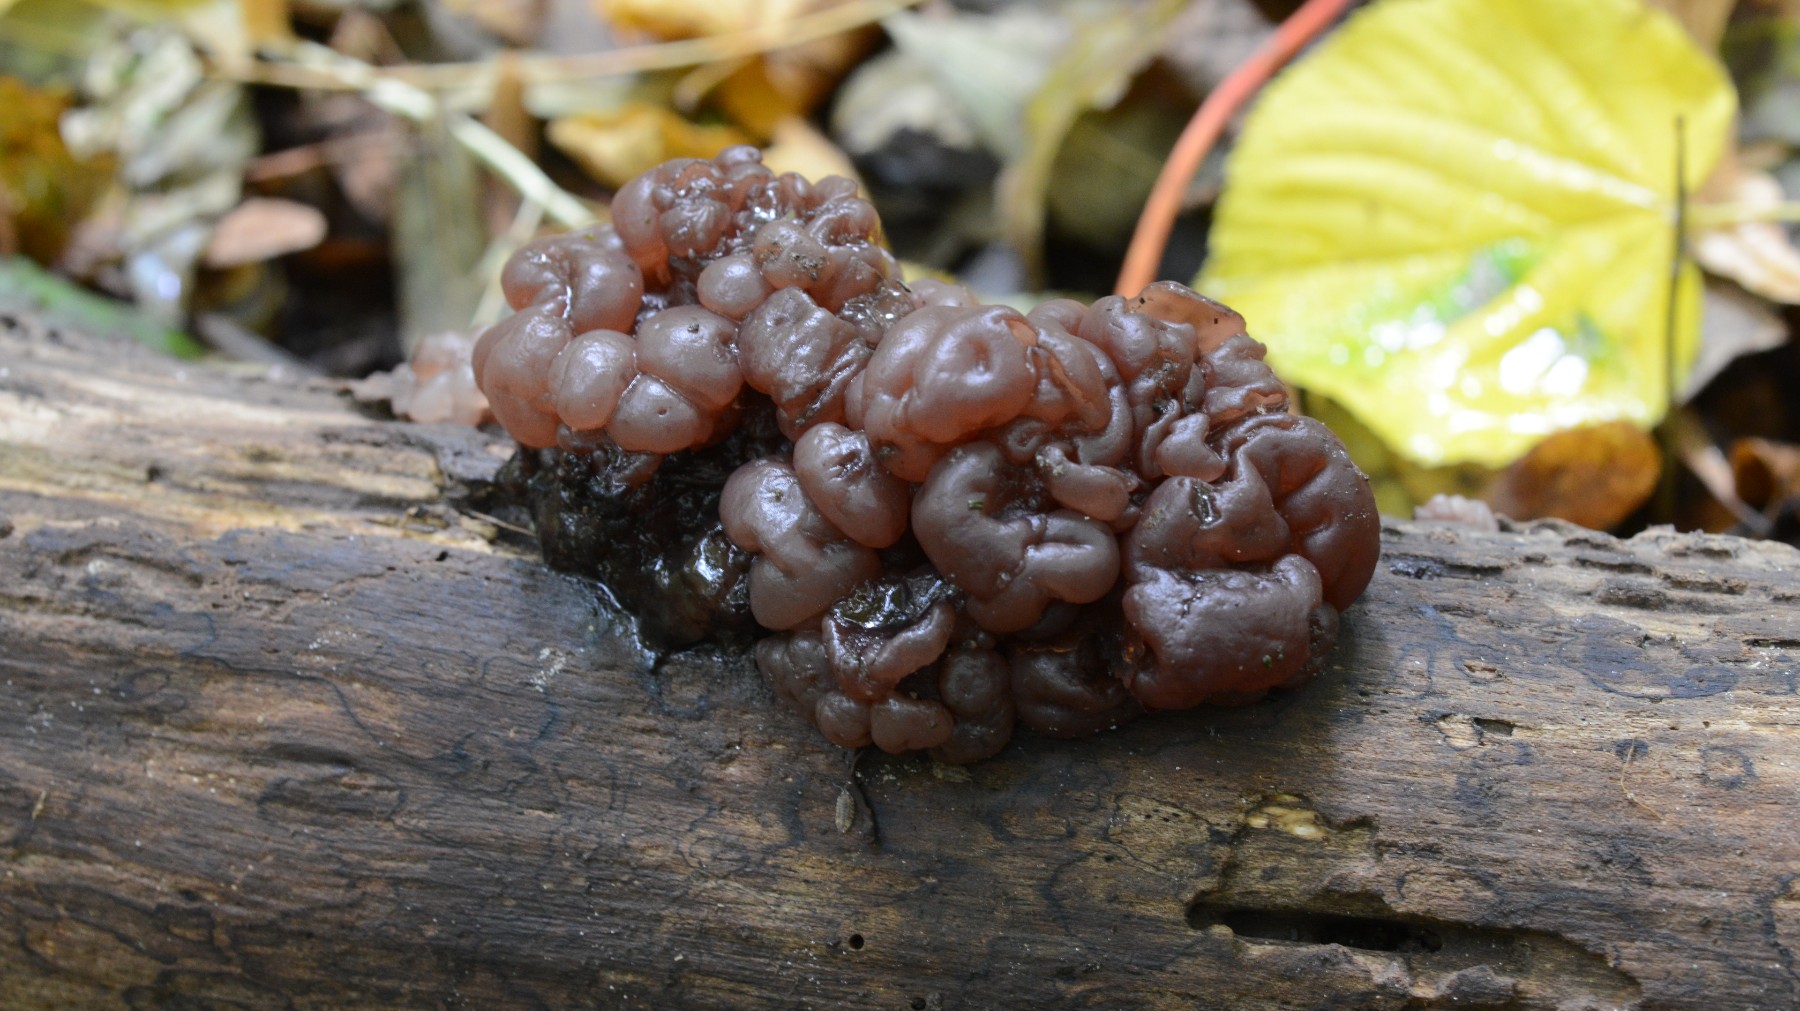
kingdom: Fungi
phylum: Ascomycota
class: Leotiomycetes
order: Helotiales
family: Gelatinodiscaceae
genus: Ascotremella
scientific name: Ascotremella faginea
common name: hjerne-bævreskive
